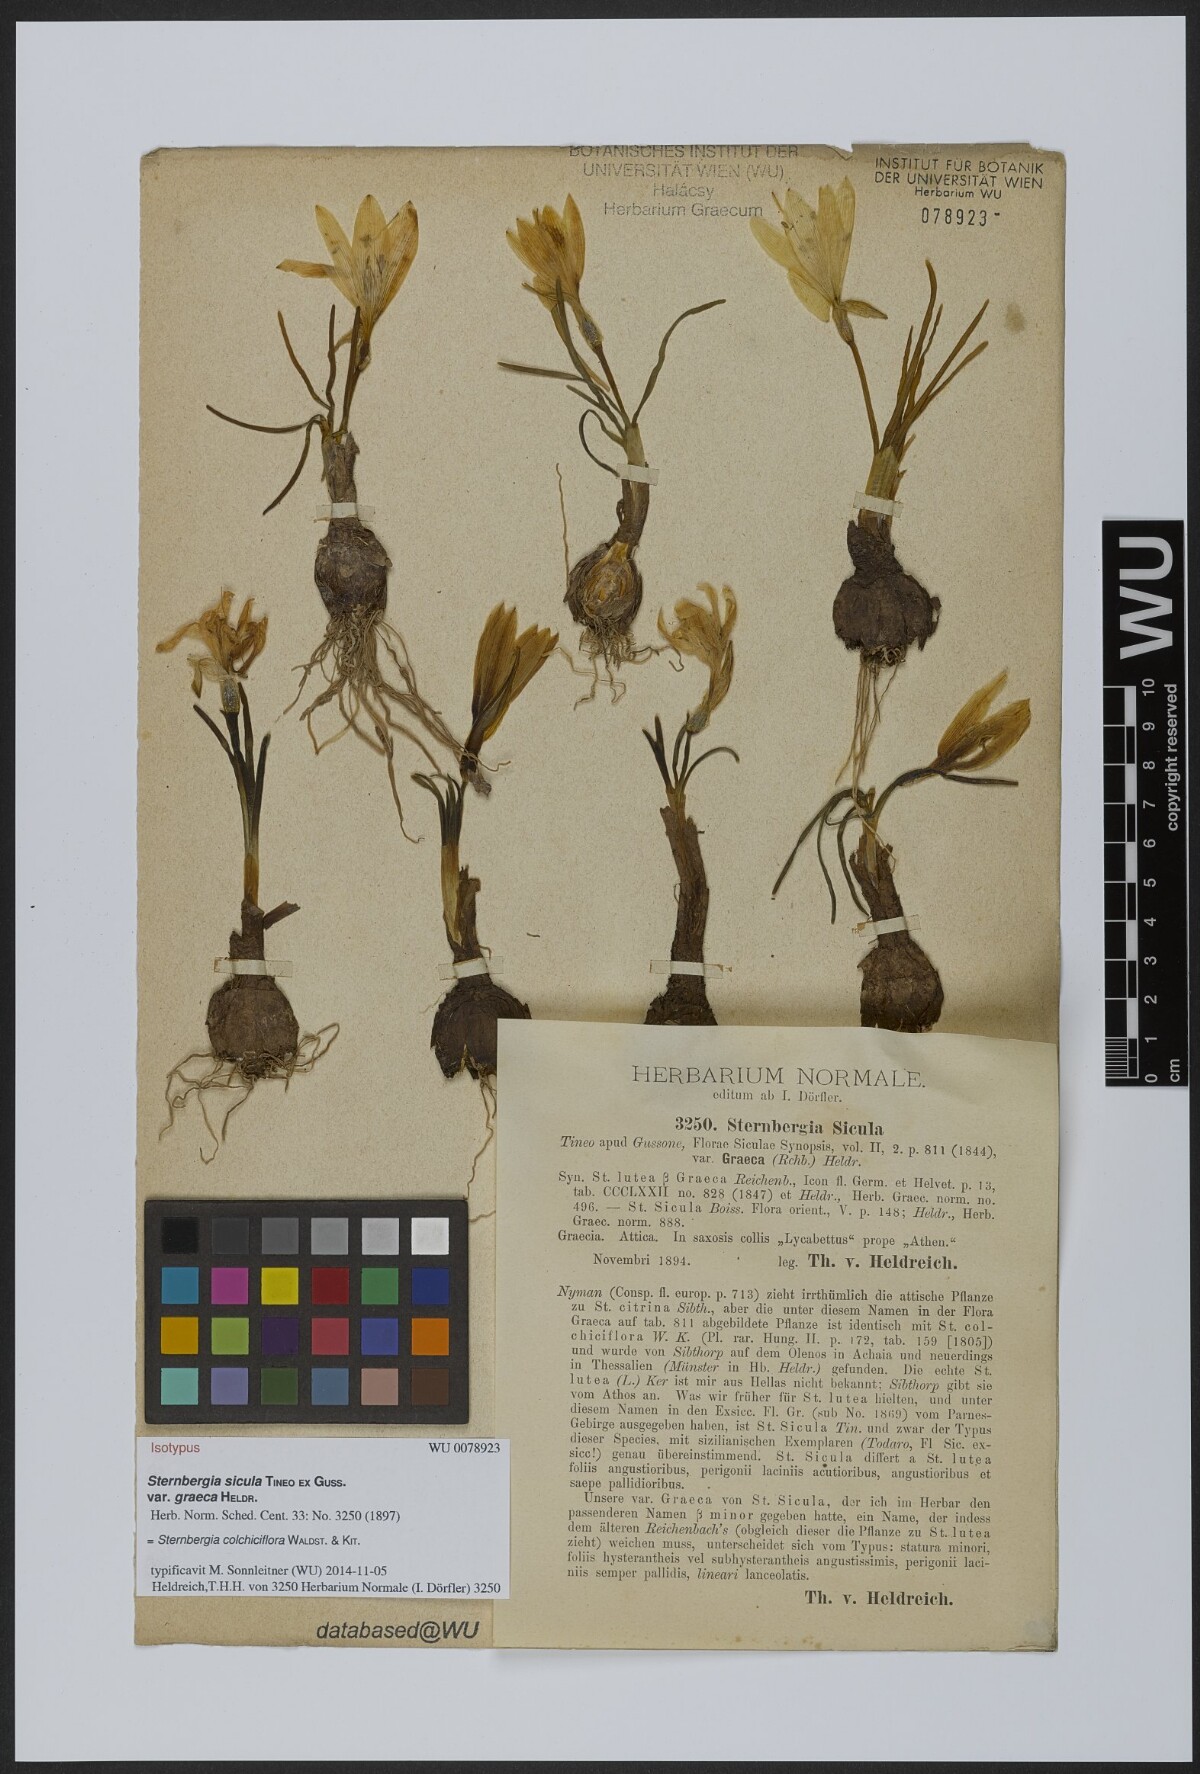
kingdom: Plantae
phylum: Tracheophyta
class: Liliopsida
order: Asparagales
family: Amaryllidaceae
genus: Sternbergia
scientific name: Sternbergia lutea
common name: Winter daffodil
